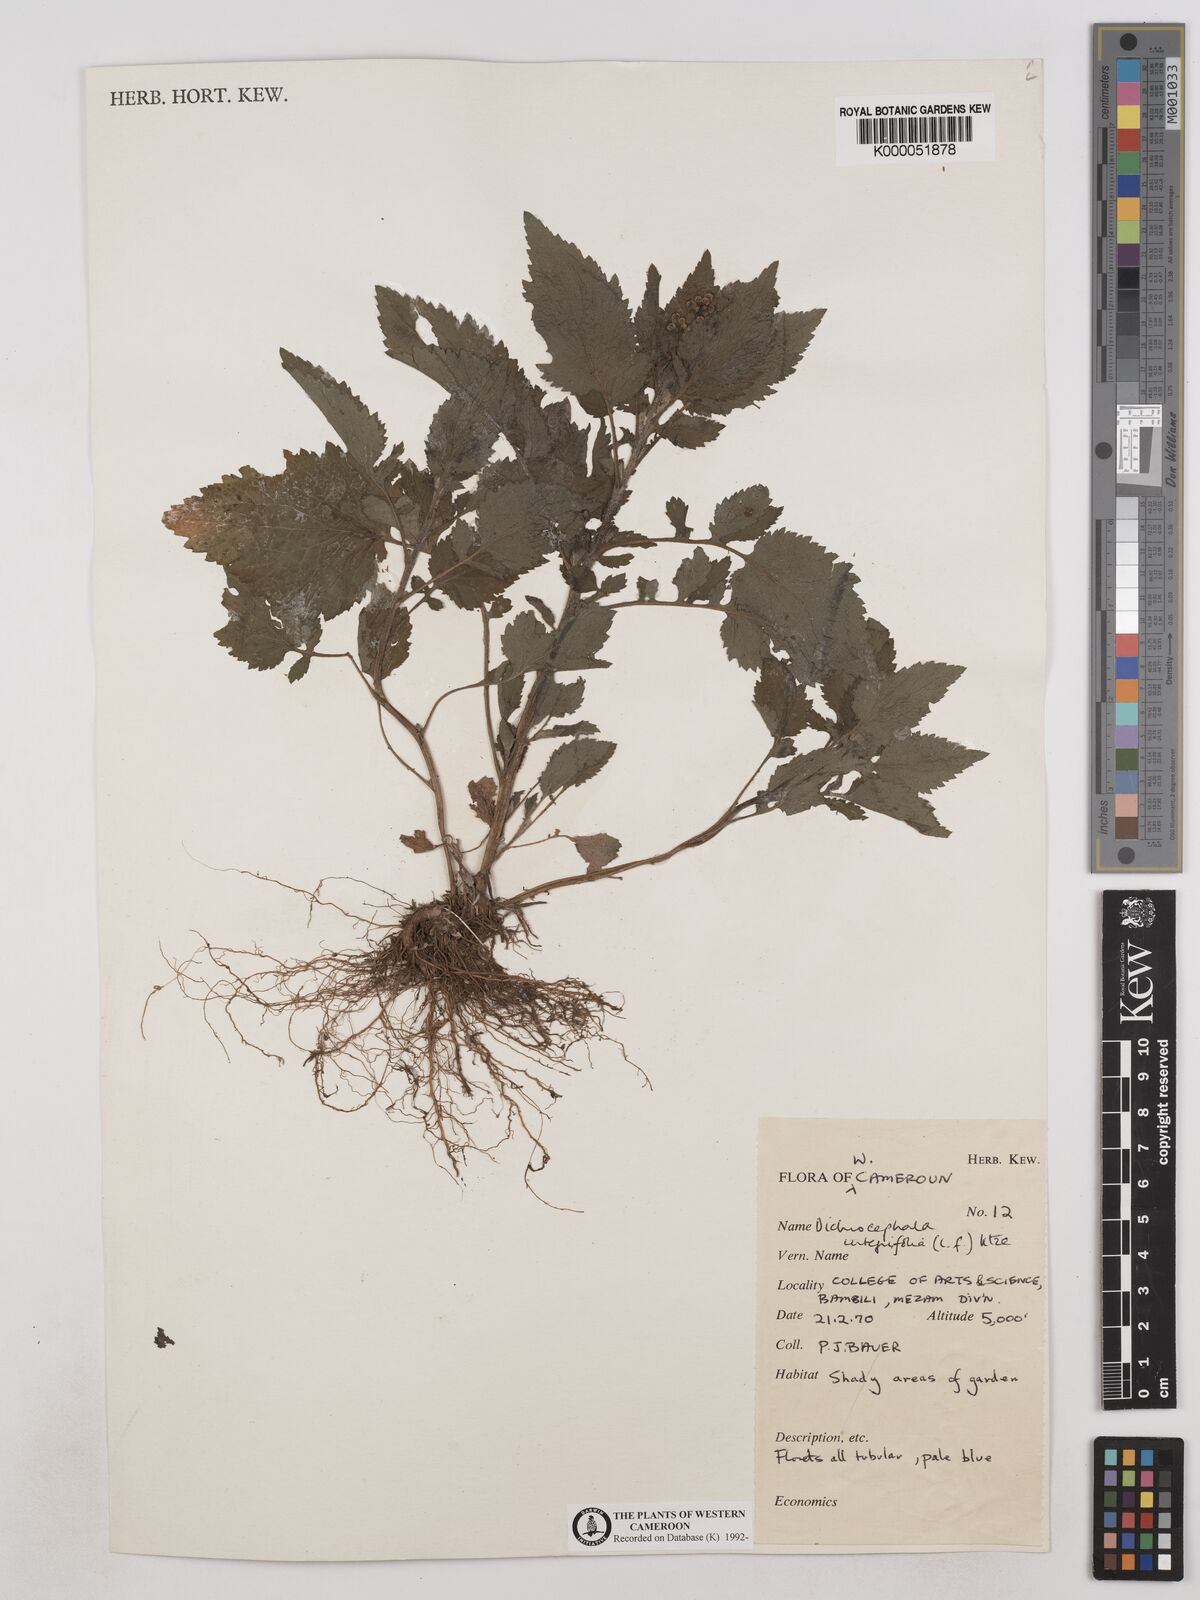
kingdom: Plantae
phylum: Tracheophyta
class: Magnoliopsida
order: Asterales
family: Asteraceae
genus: Dichrocephala
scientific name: Dichrocephala integrifolia
